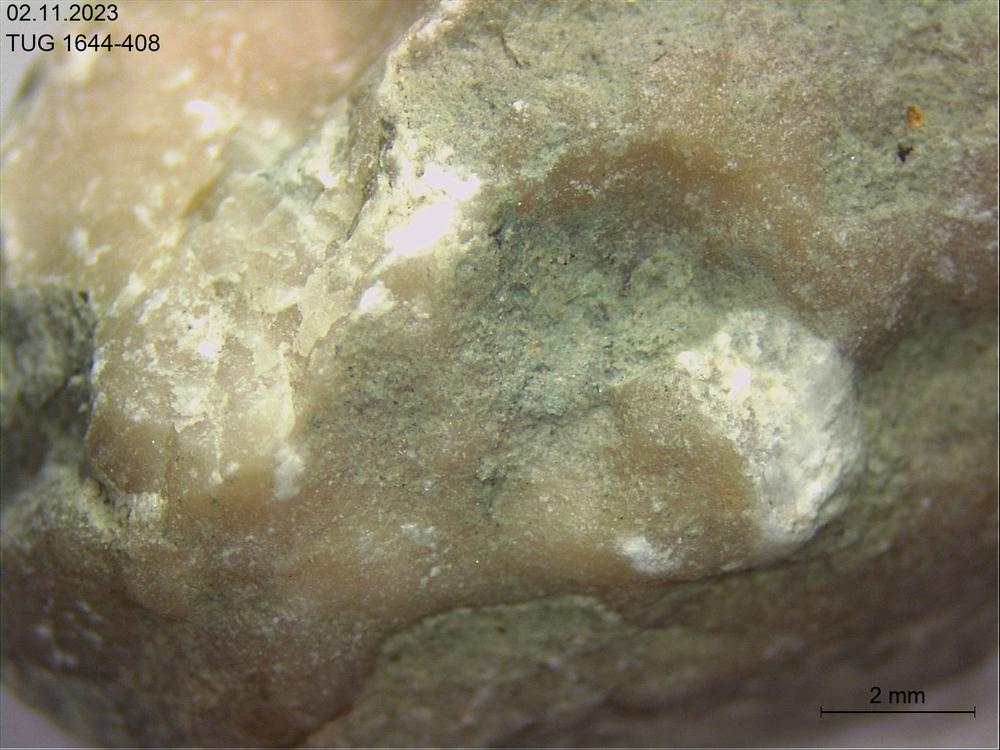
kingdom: Animalia
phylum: Bryozoa
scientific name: Bryozoa
